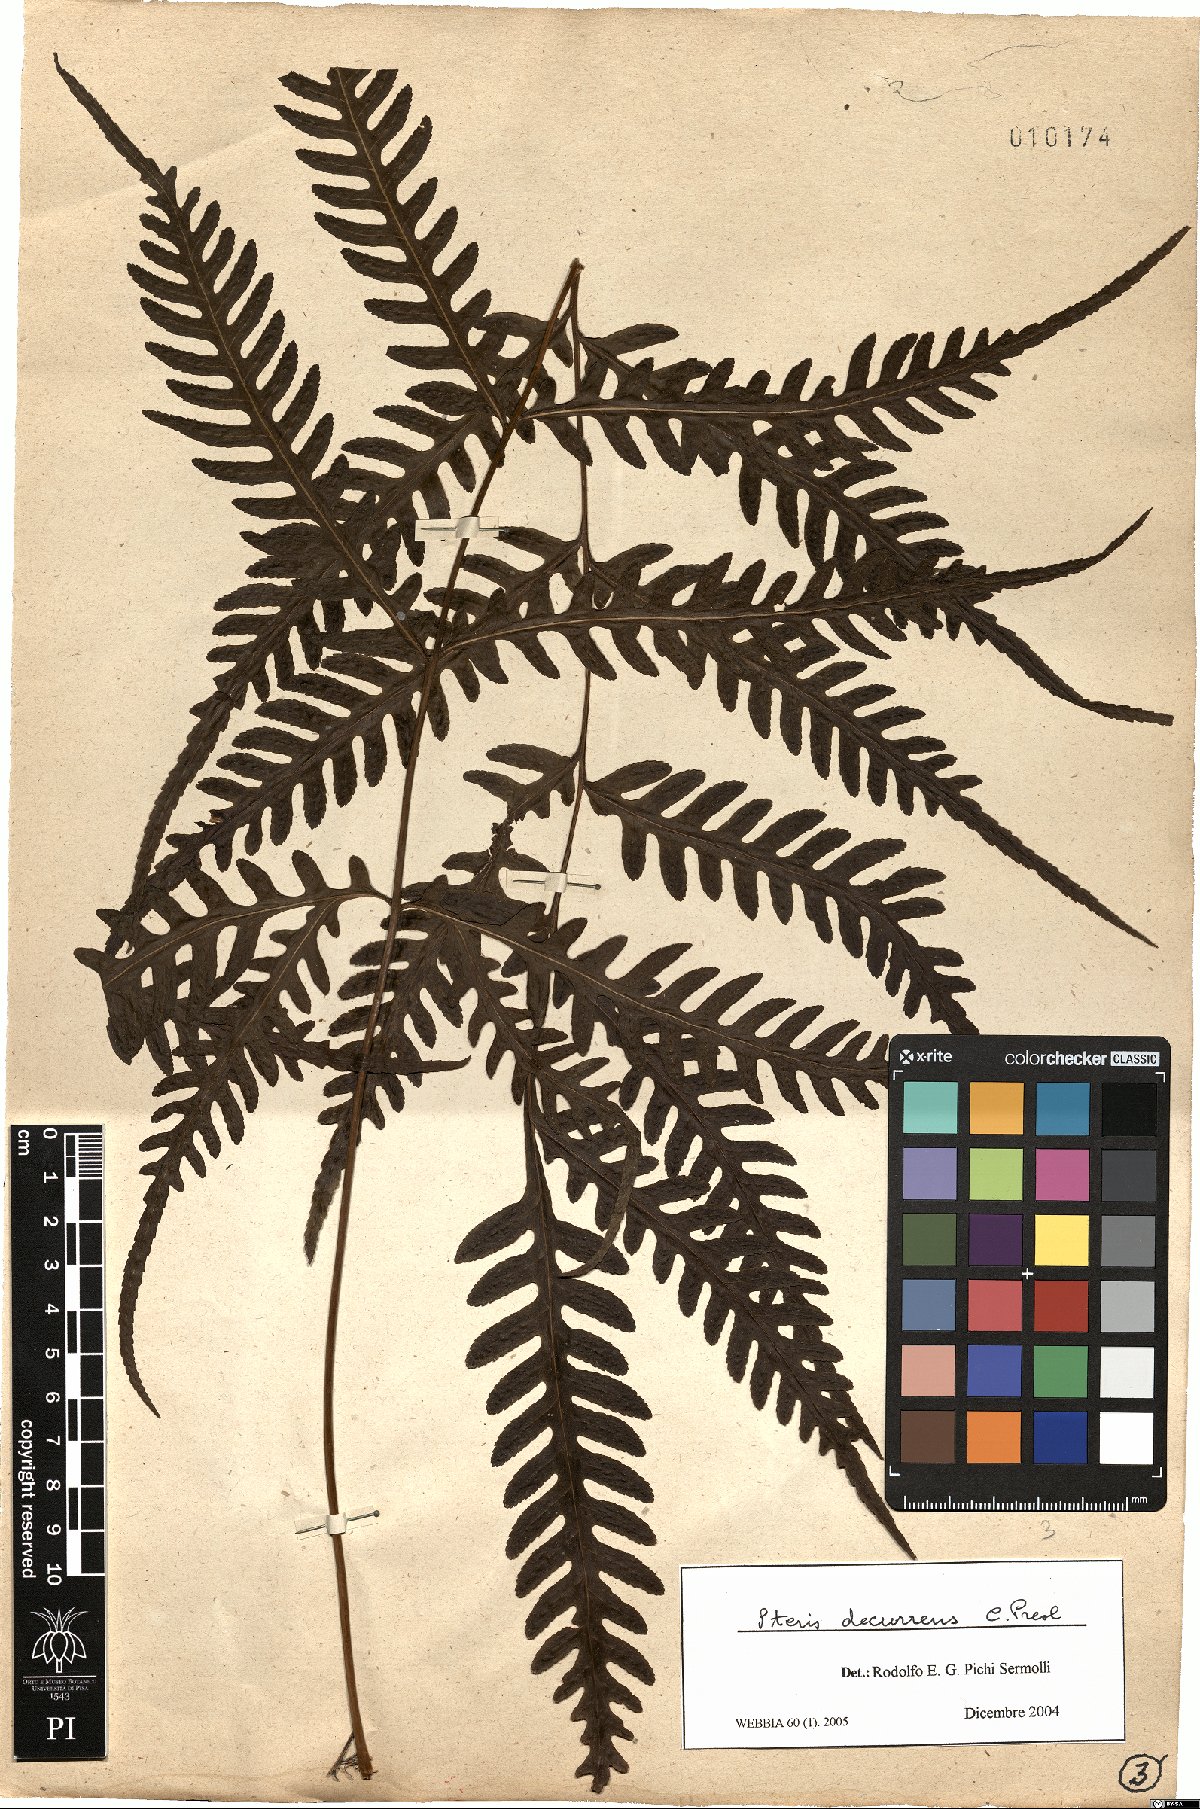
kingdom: Plantae
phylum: Tracheophyta
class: Polypodiopsida
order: Polypodiales
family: Pteridaceae
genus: Pteris
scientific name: Pteris decurrens
